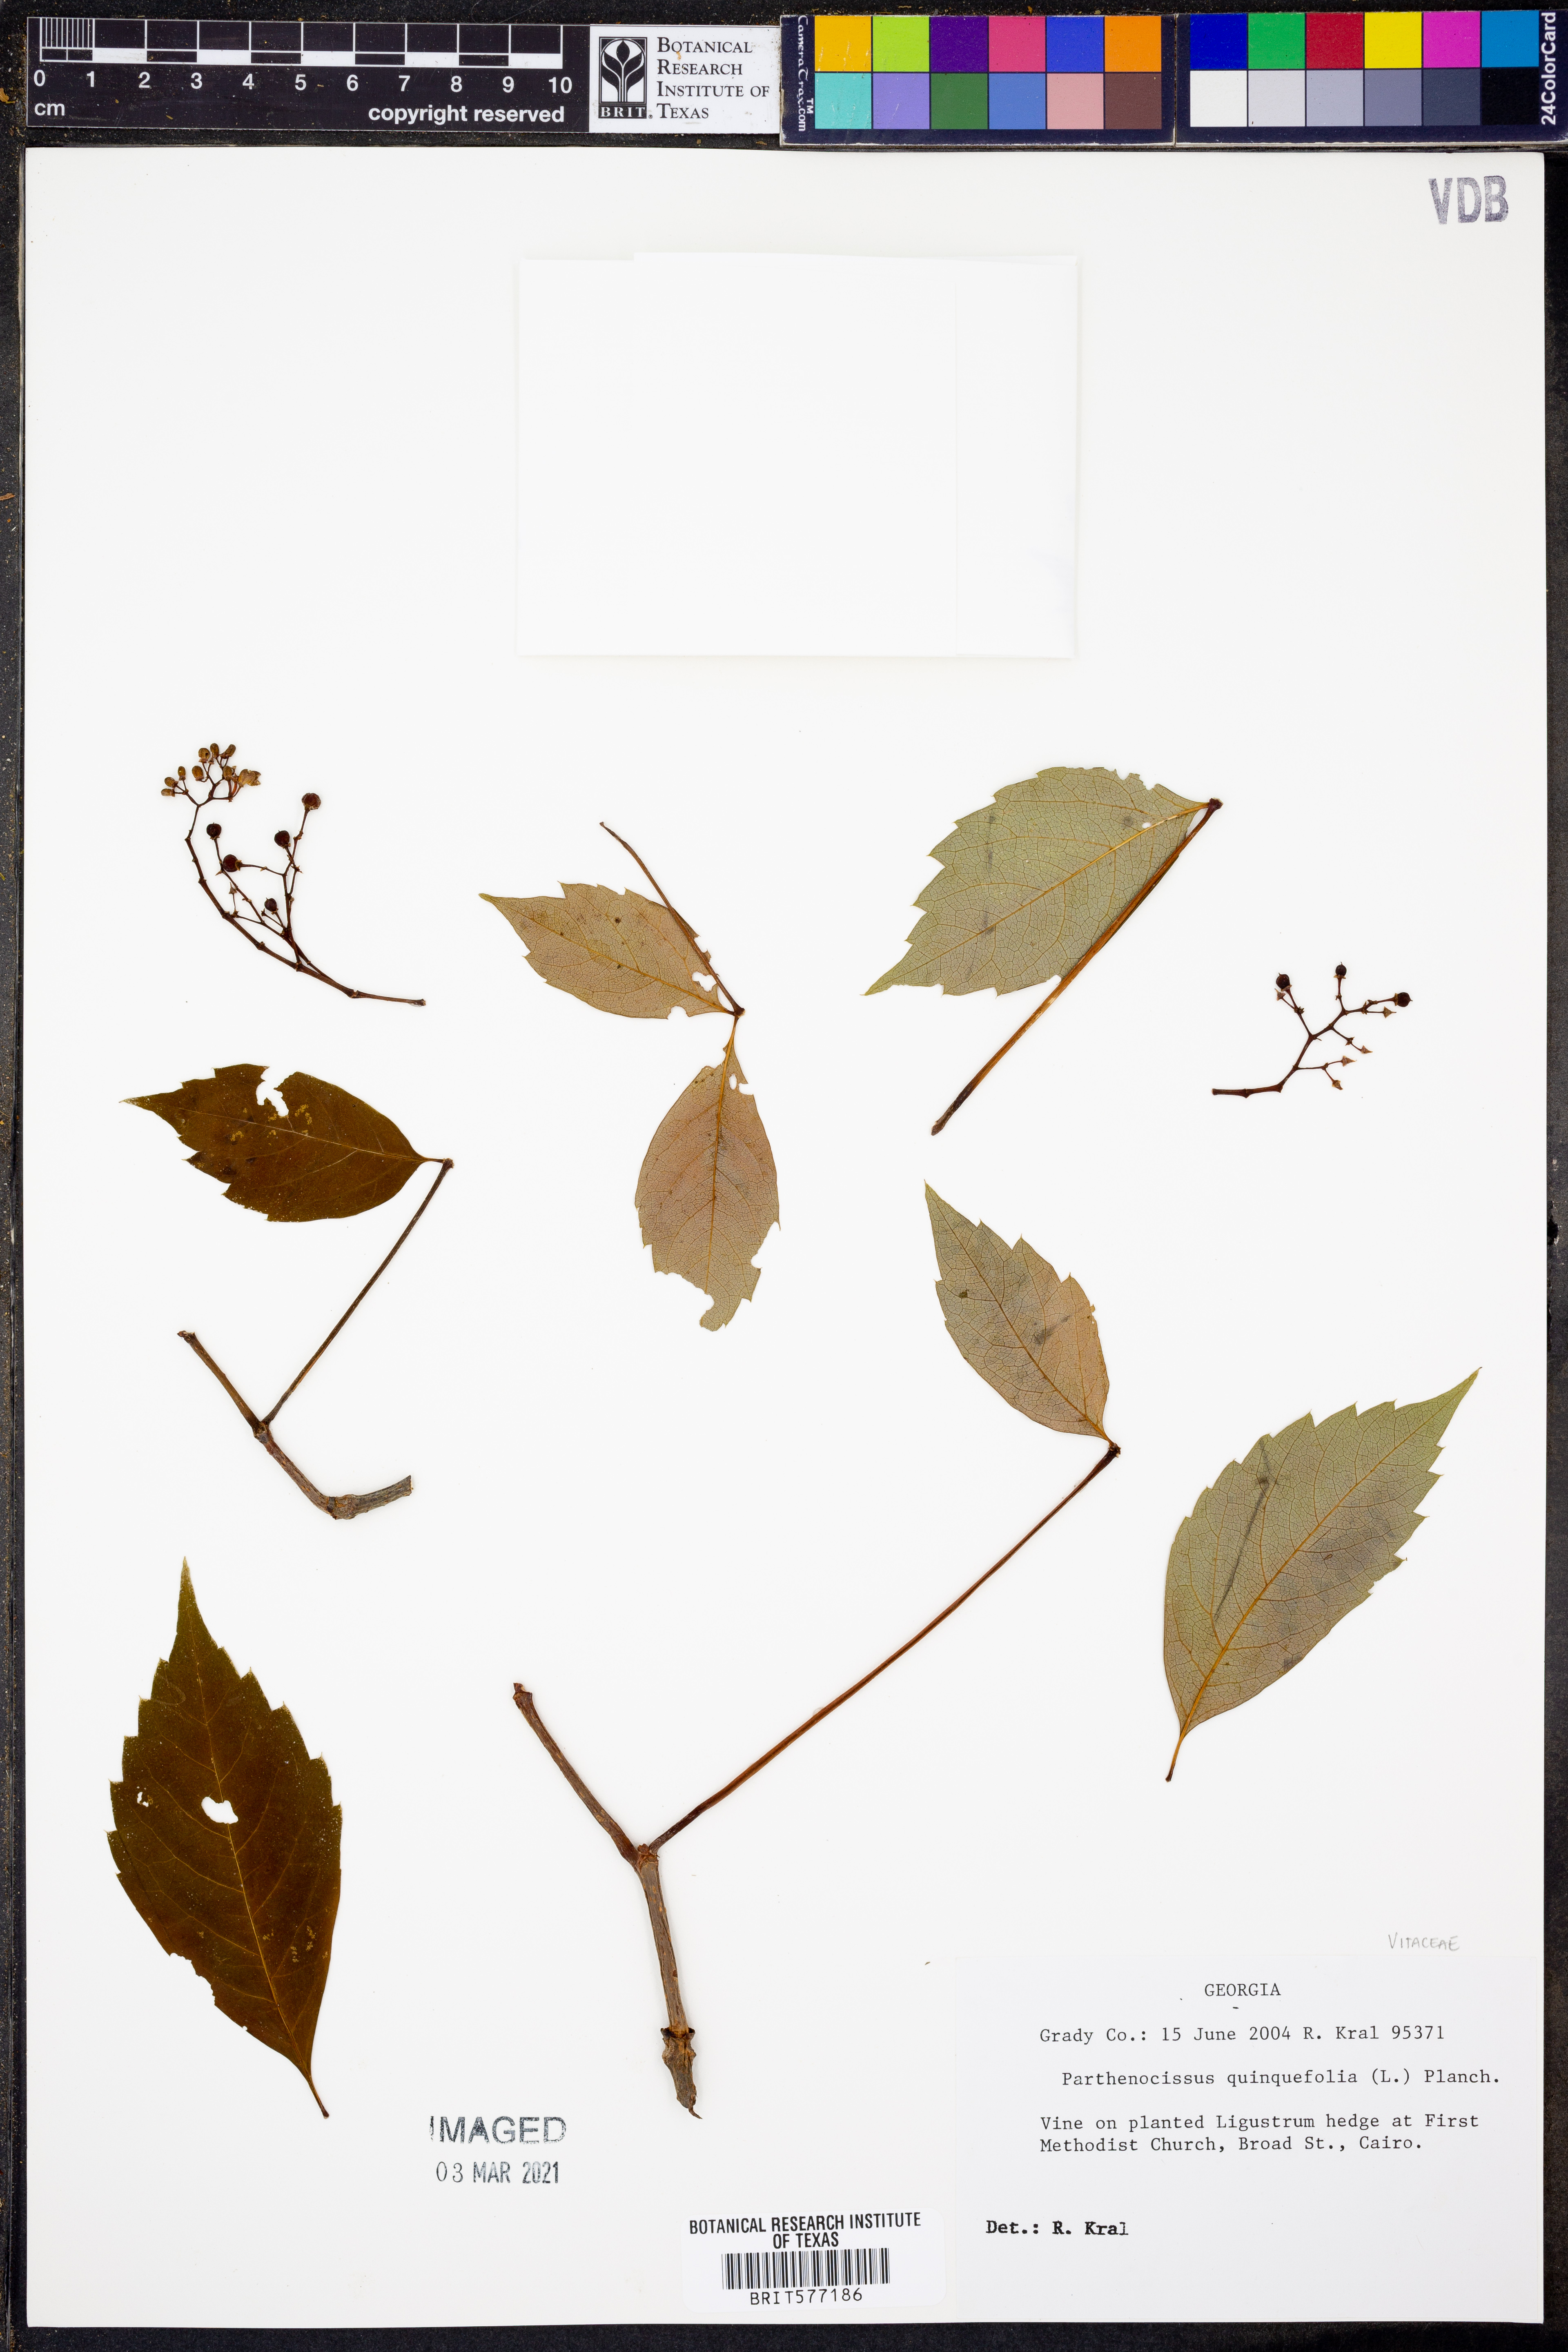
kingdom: Plantae
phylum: Tracheophyta
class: Magnoliopsida
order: Vitales
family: Vitaceae
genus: Parthenocissus
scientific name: Parthenocissus quinquefolia
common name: Virginia-creeper
